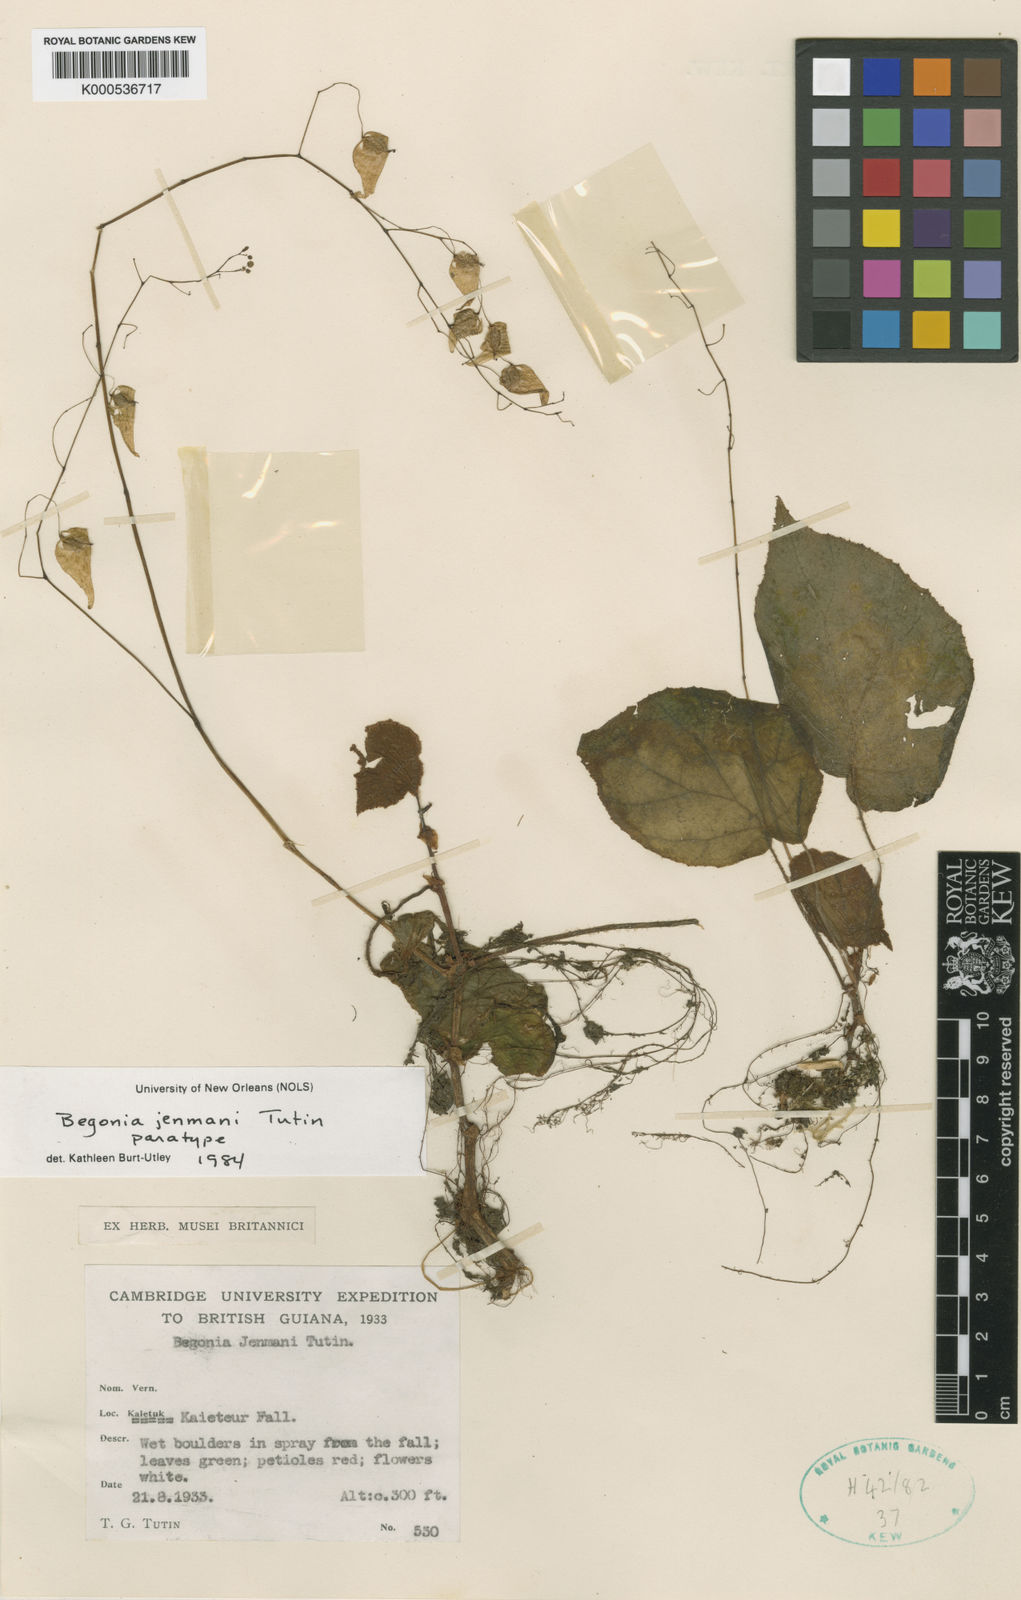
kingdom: Plantae
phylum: Tracheophyta
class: Magnoliopsida
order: Cucurbitales
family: Begoniaceae
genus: Begonia
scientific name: Begonia jenmanii
